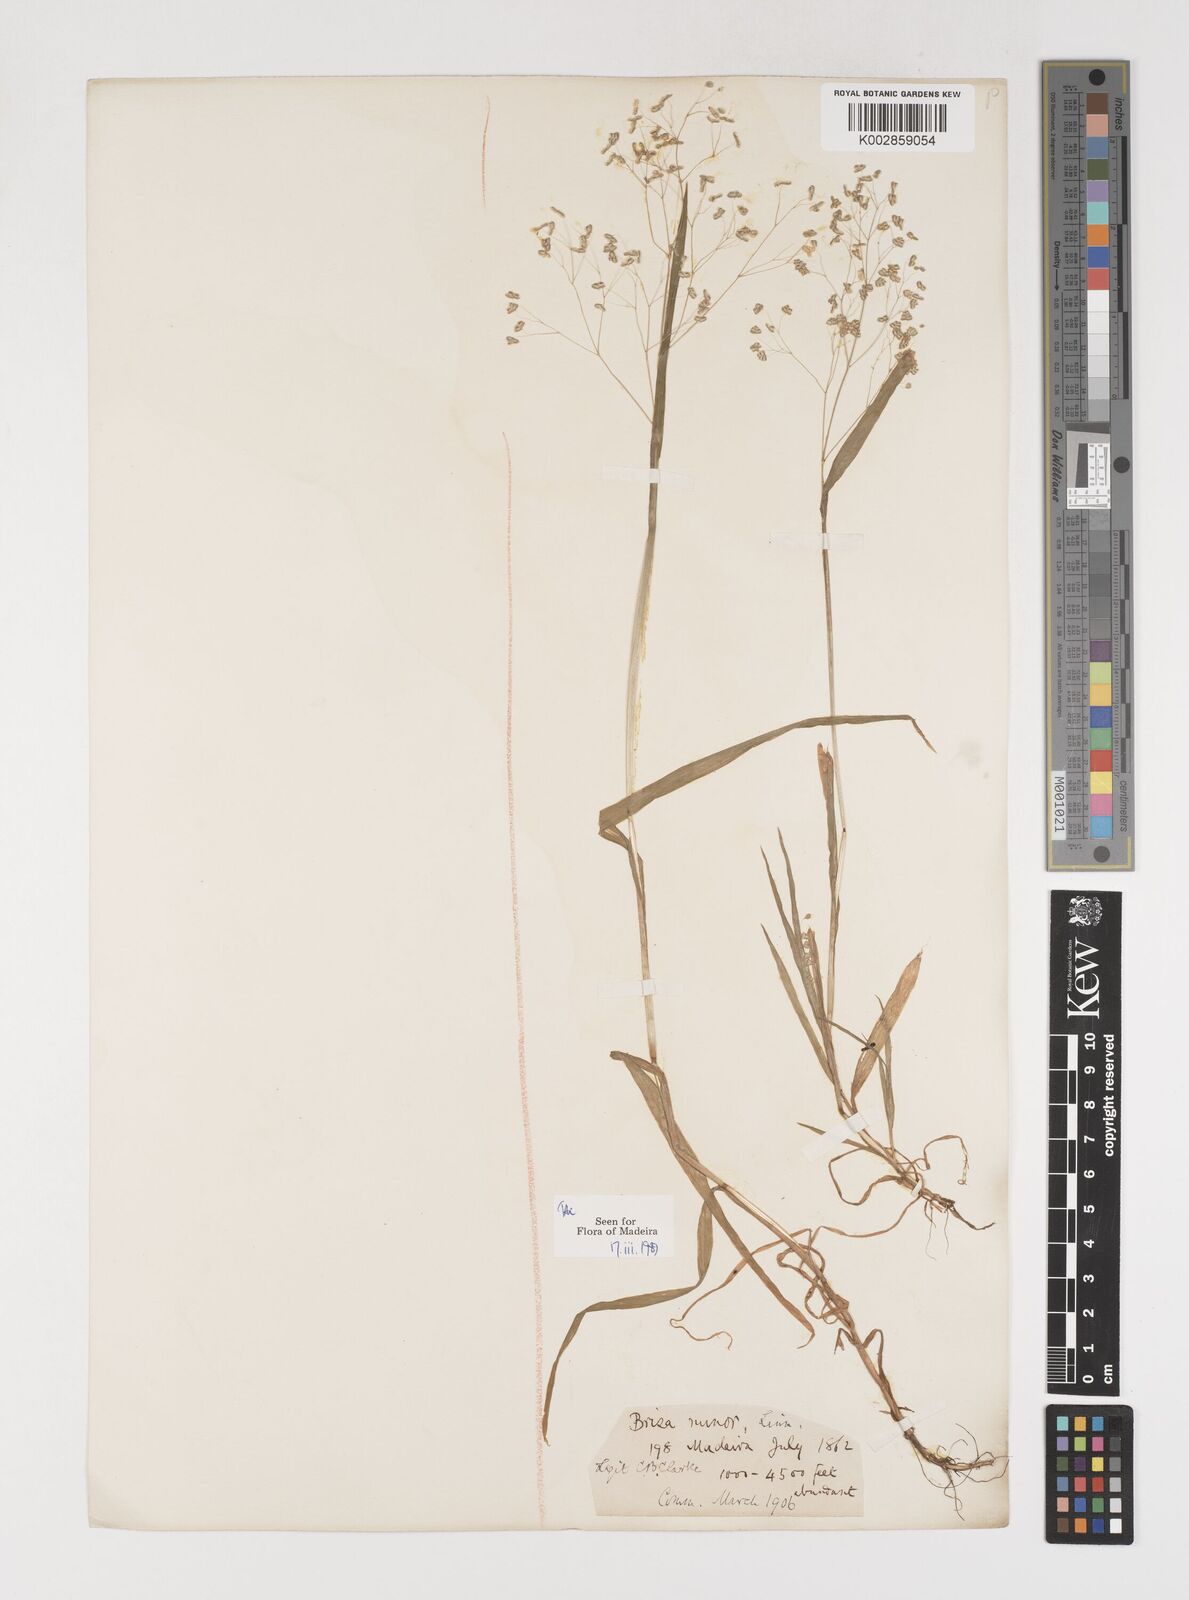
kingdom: Plantae
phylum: Tracheophyta
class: Liliopsida
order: Poales
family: Poaceae
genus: Briza
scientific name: Briza minor
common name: Lesser quaking-grass
